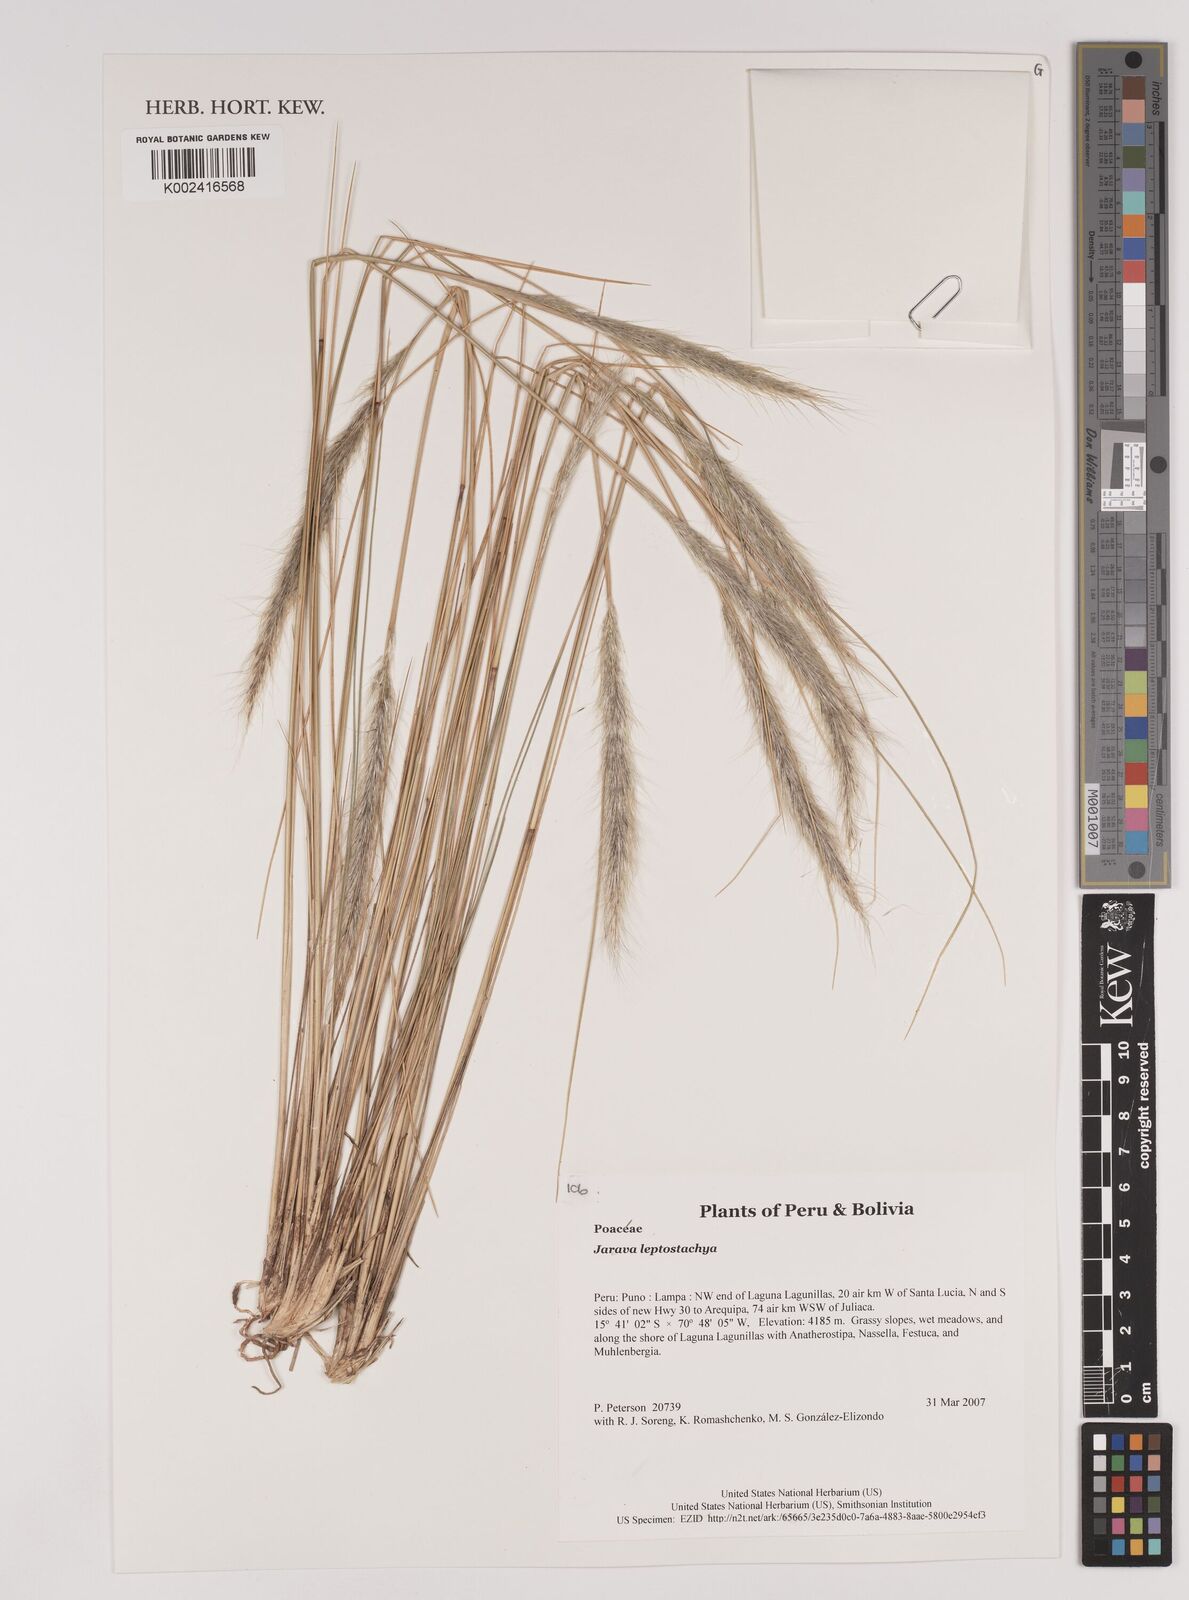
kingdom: Plantae
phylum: Tracheophyta
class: Liliopsida
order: Poales
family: Poaceae
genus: Jarava
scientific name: Jarava leptostachya
